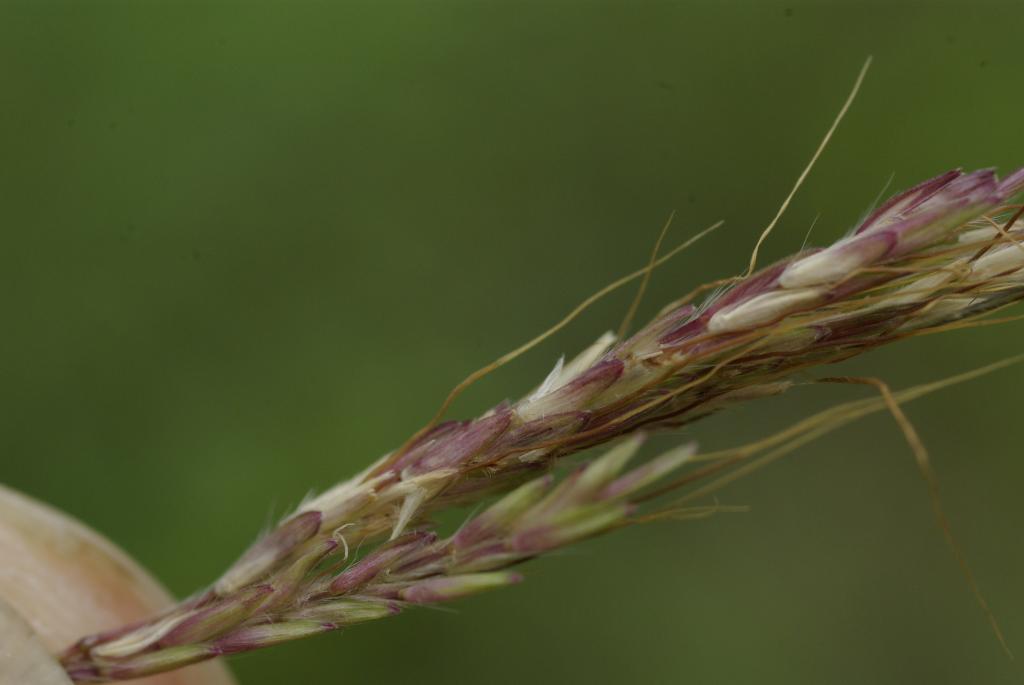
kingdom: Plantae
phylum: Tracheophyta
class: Liliopsida
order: Poales
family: Poaceae
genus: Bothriochloa
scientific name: Bothriochloa bladhii
